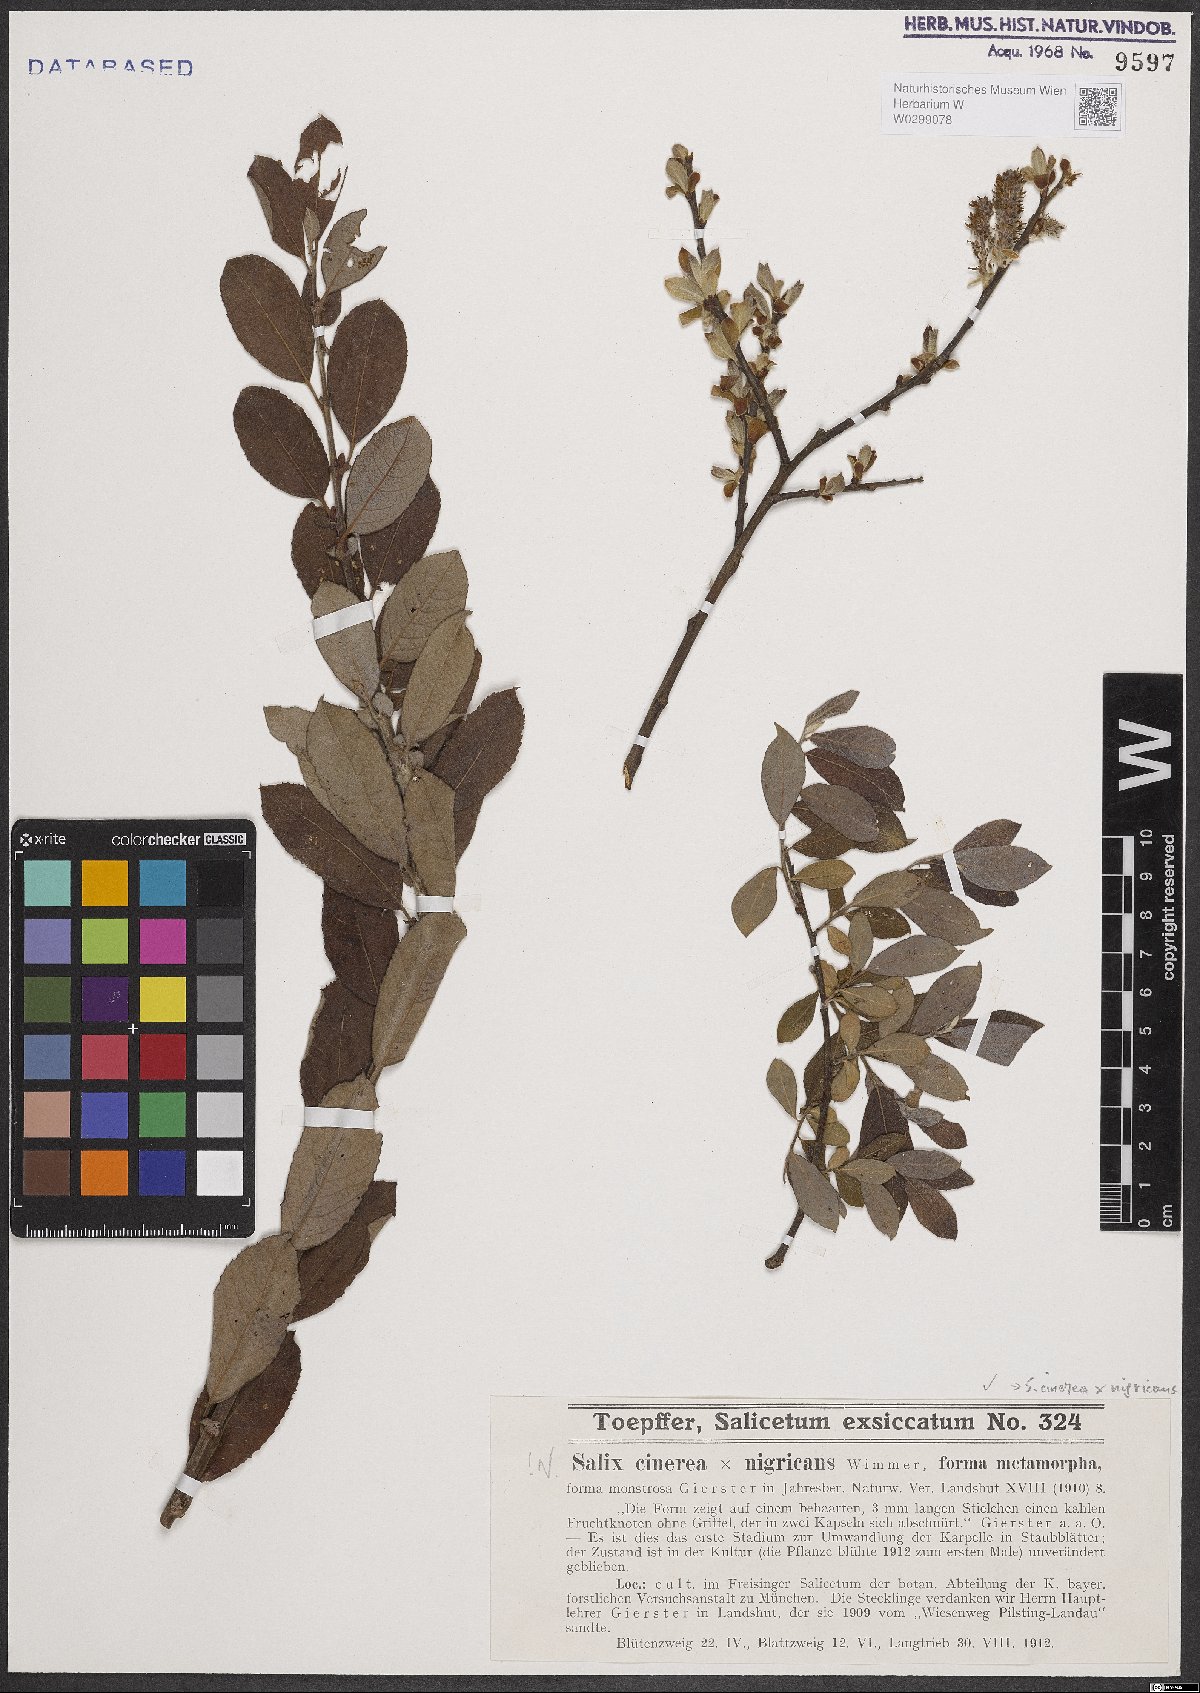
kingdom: Plantae
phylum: Tracheophyta
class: Magnoliopsida
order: Malpighiales
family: Salicaceae
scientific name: Salicaceae
